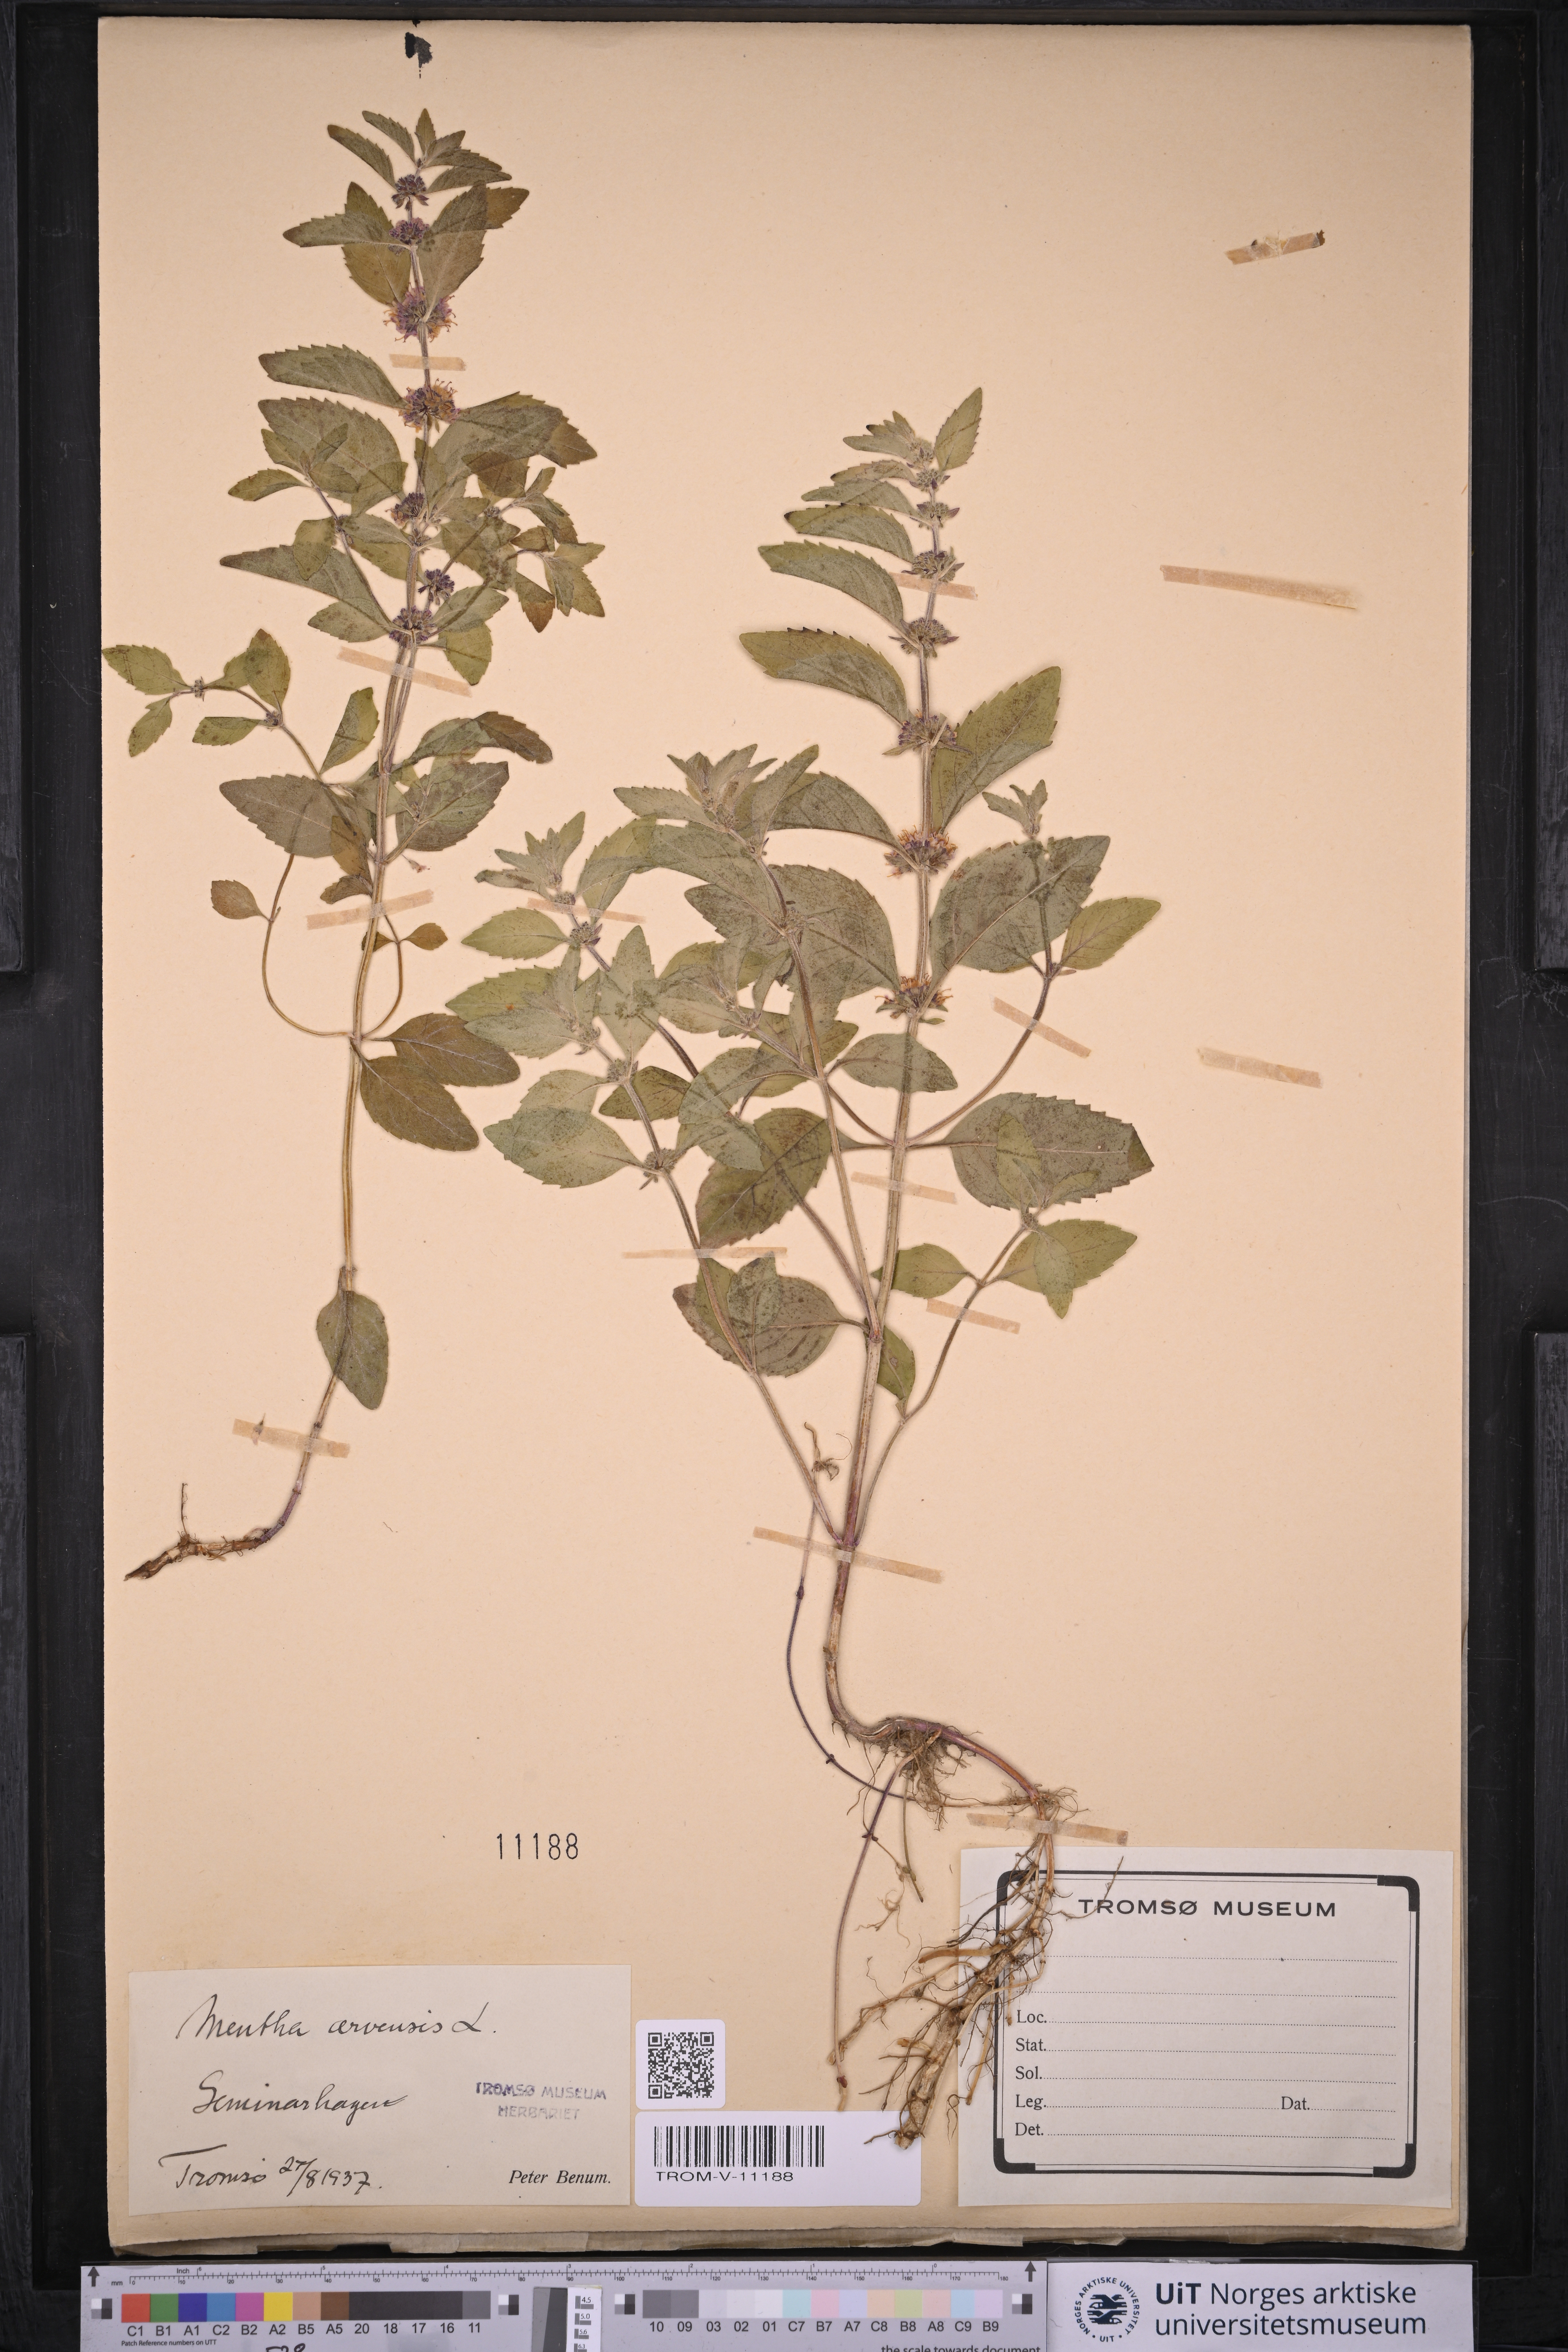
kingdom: Plantae
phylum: Tracheophyta
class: Magnoliopsida
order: Lamiales
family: Lamiaceae
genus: Mentha
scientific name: Mentha arvensis
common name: Corn mint
